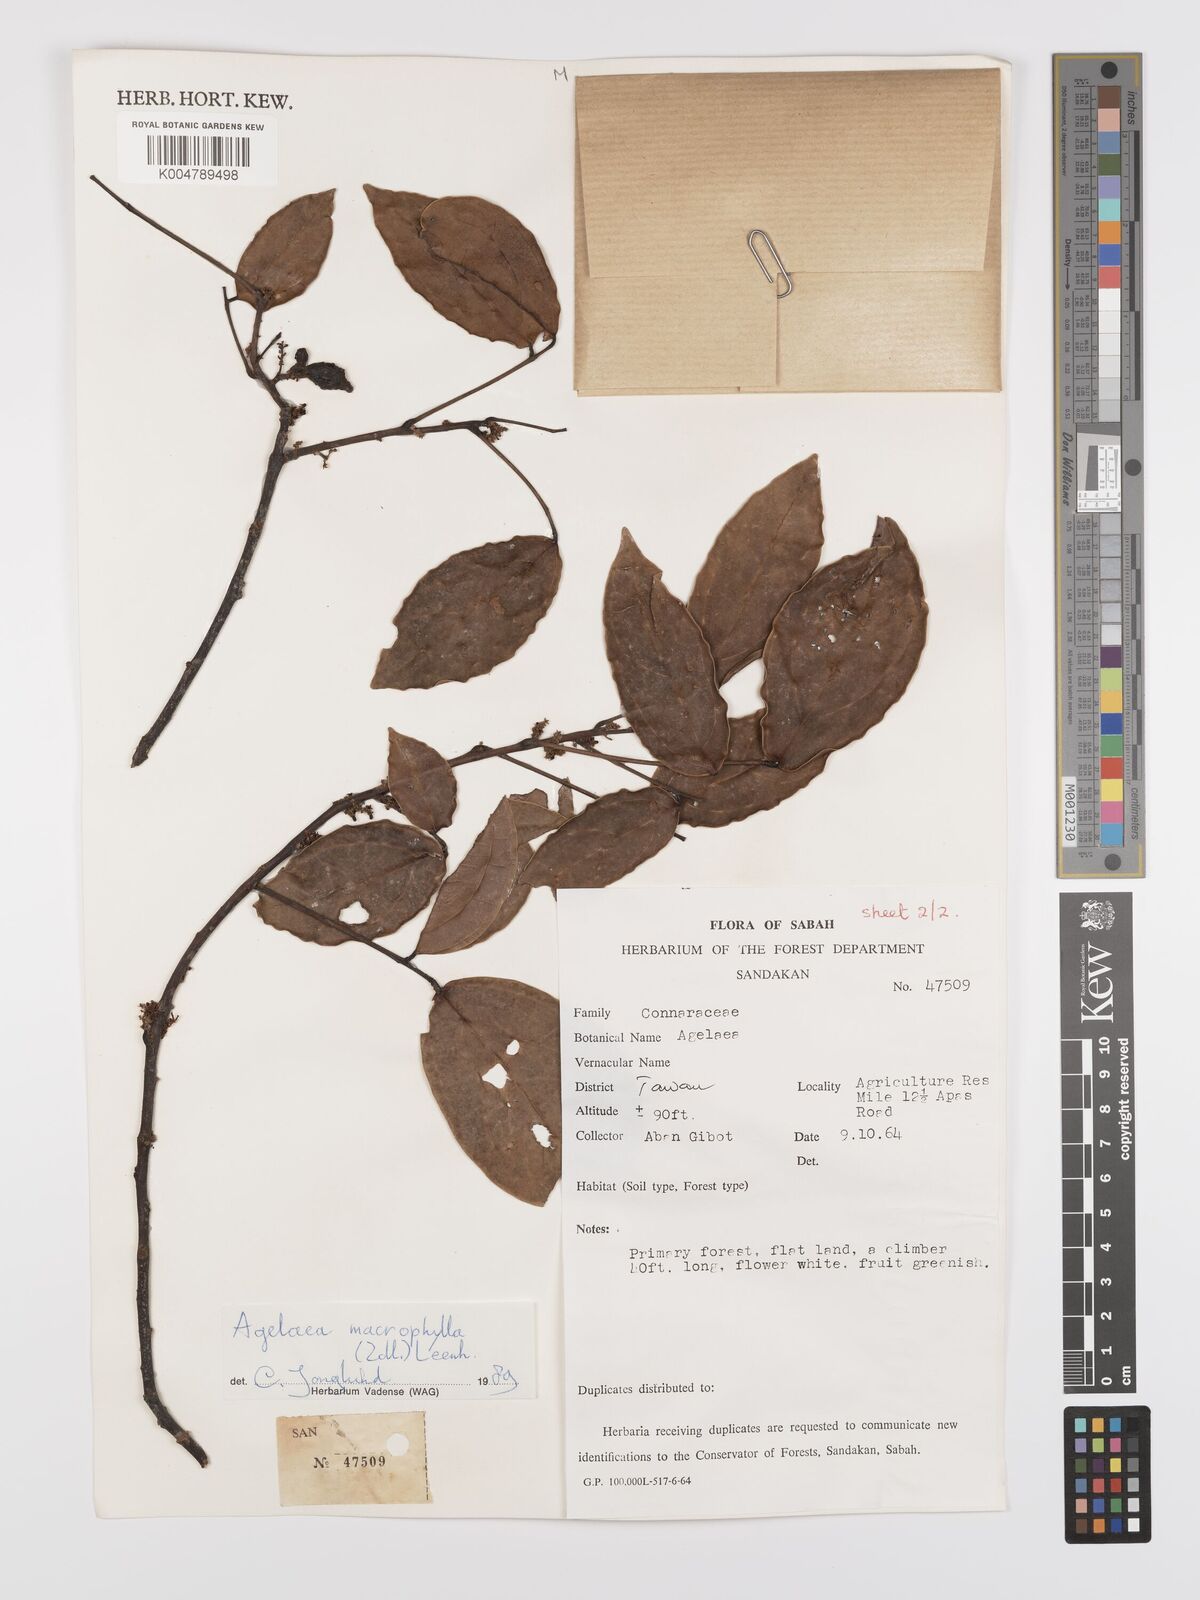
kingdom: Plantae
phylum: Tracheophyta
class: Magnoliopsida
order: Oxalidales
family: Connaraceae
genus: Agelaea
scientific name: Agelaea macrophylla
